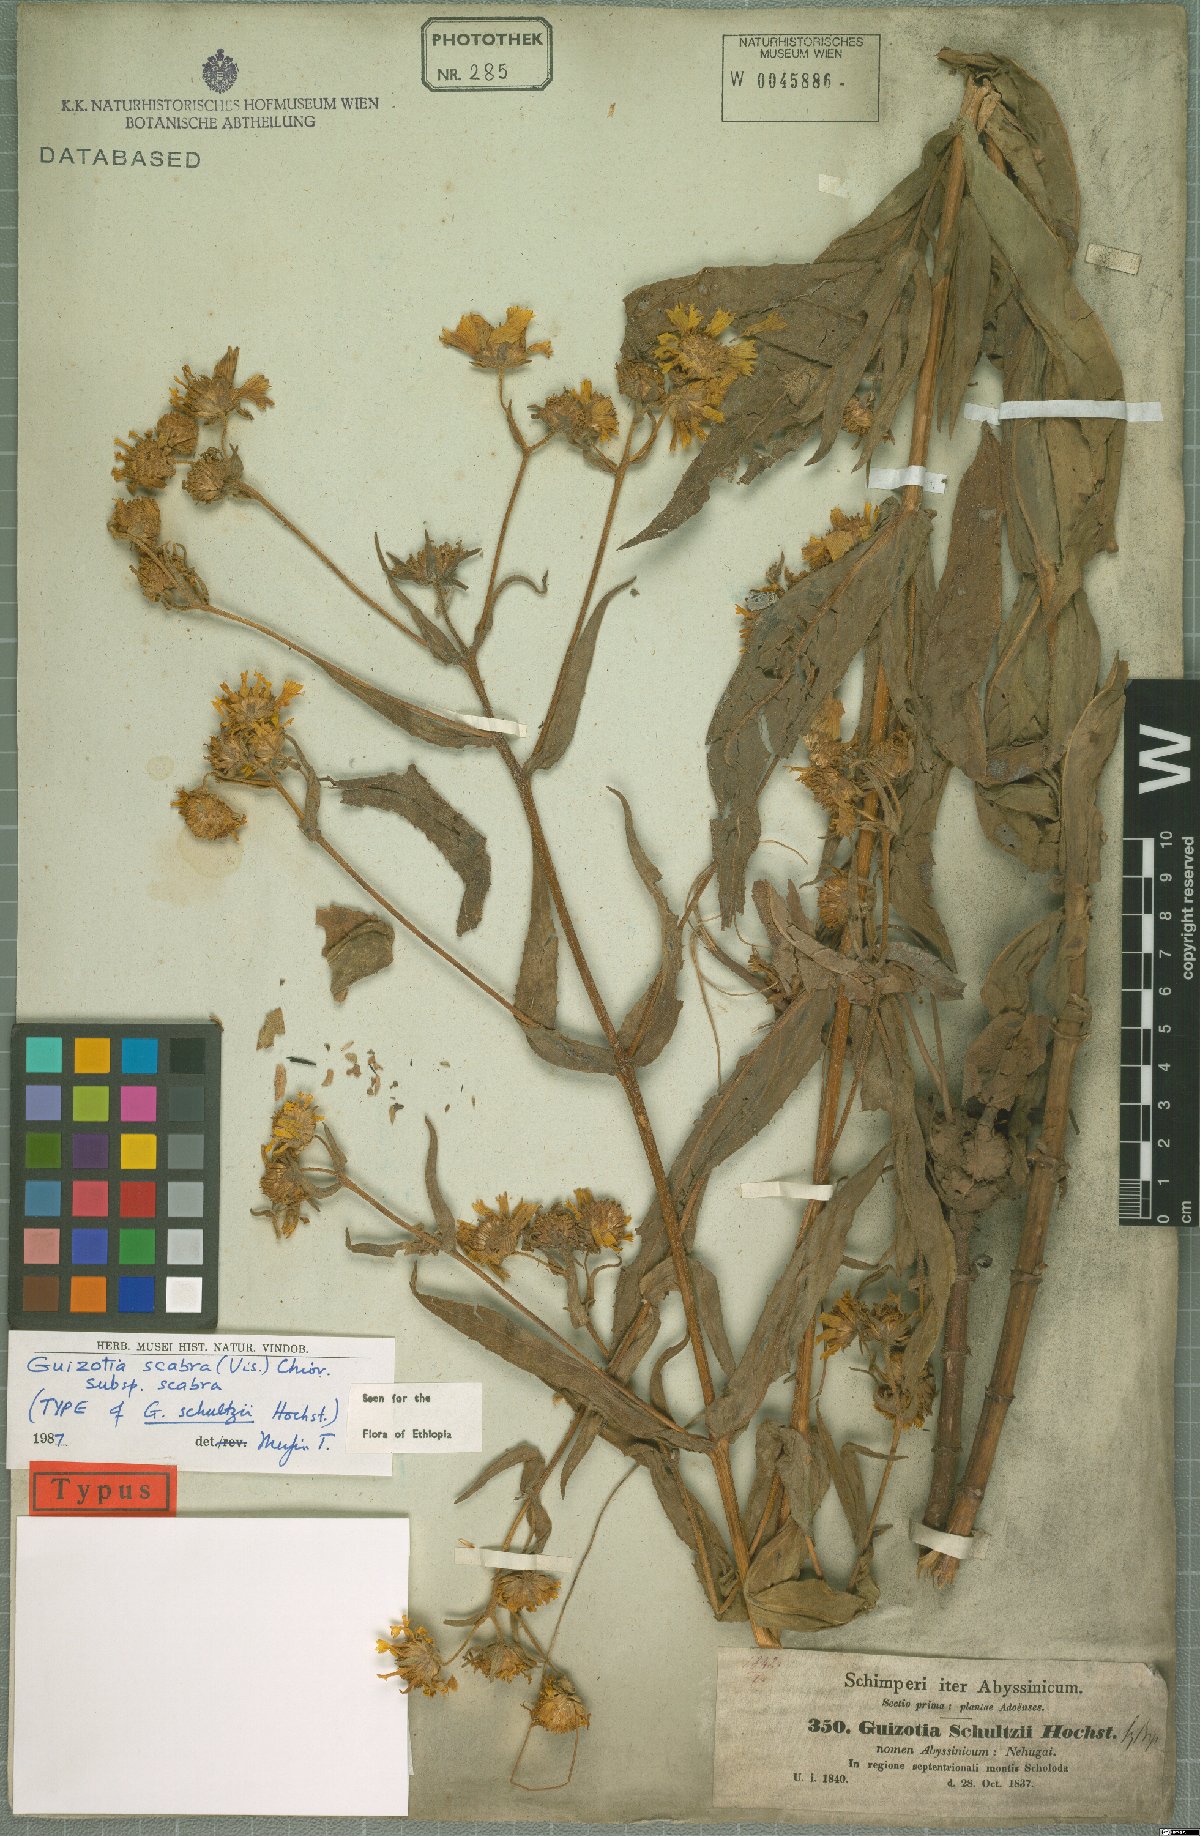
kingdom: Plantae
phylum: Tracheophyta
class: Magnoliopsida
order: Asterales
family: Asteraceae
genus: Guizotia
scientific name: Guizotia scabra
